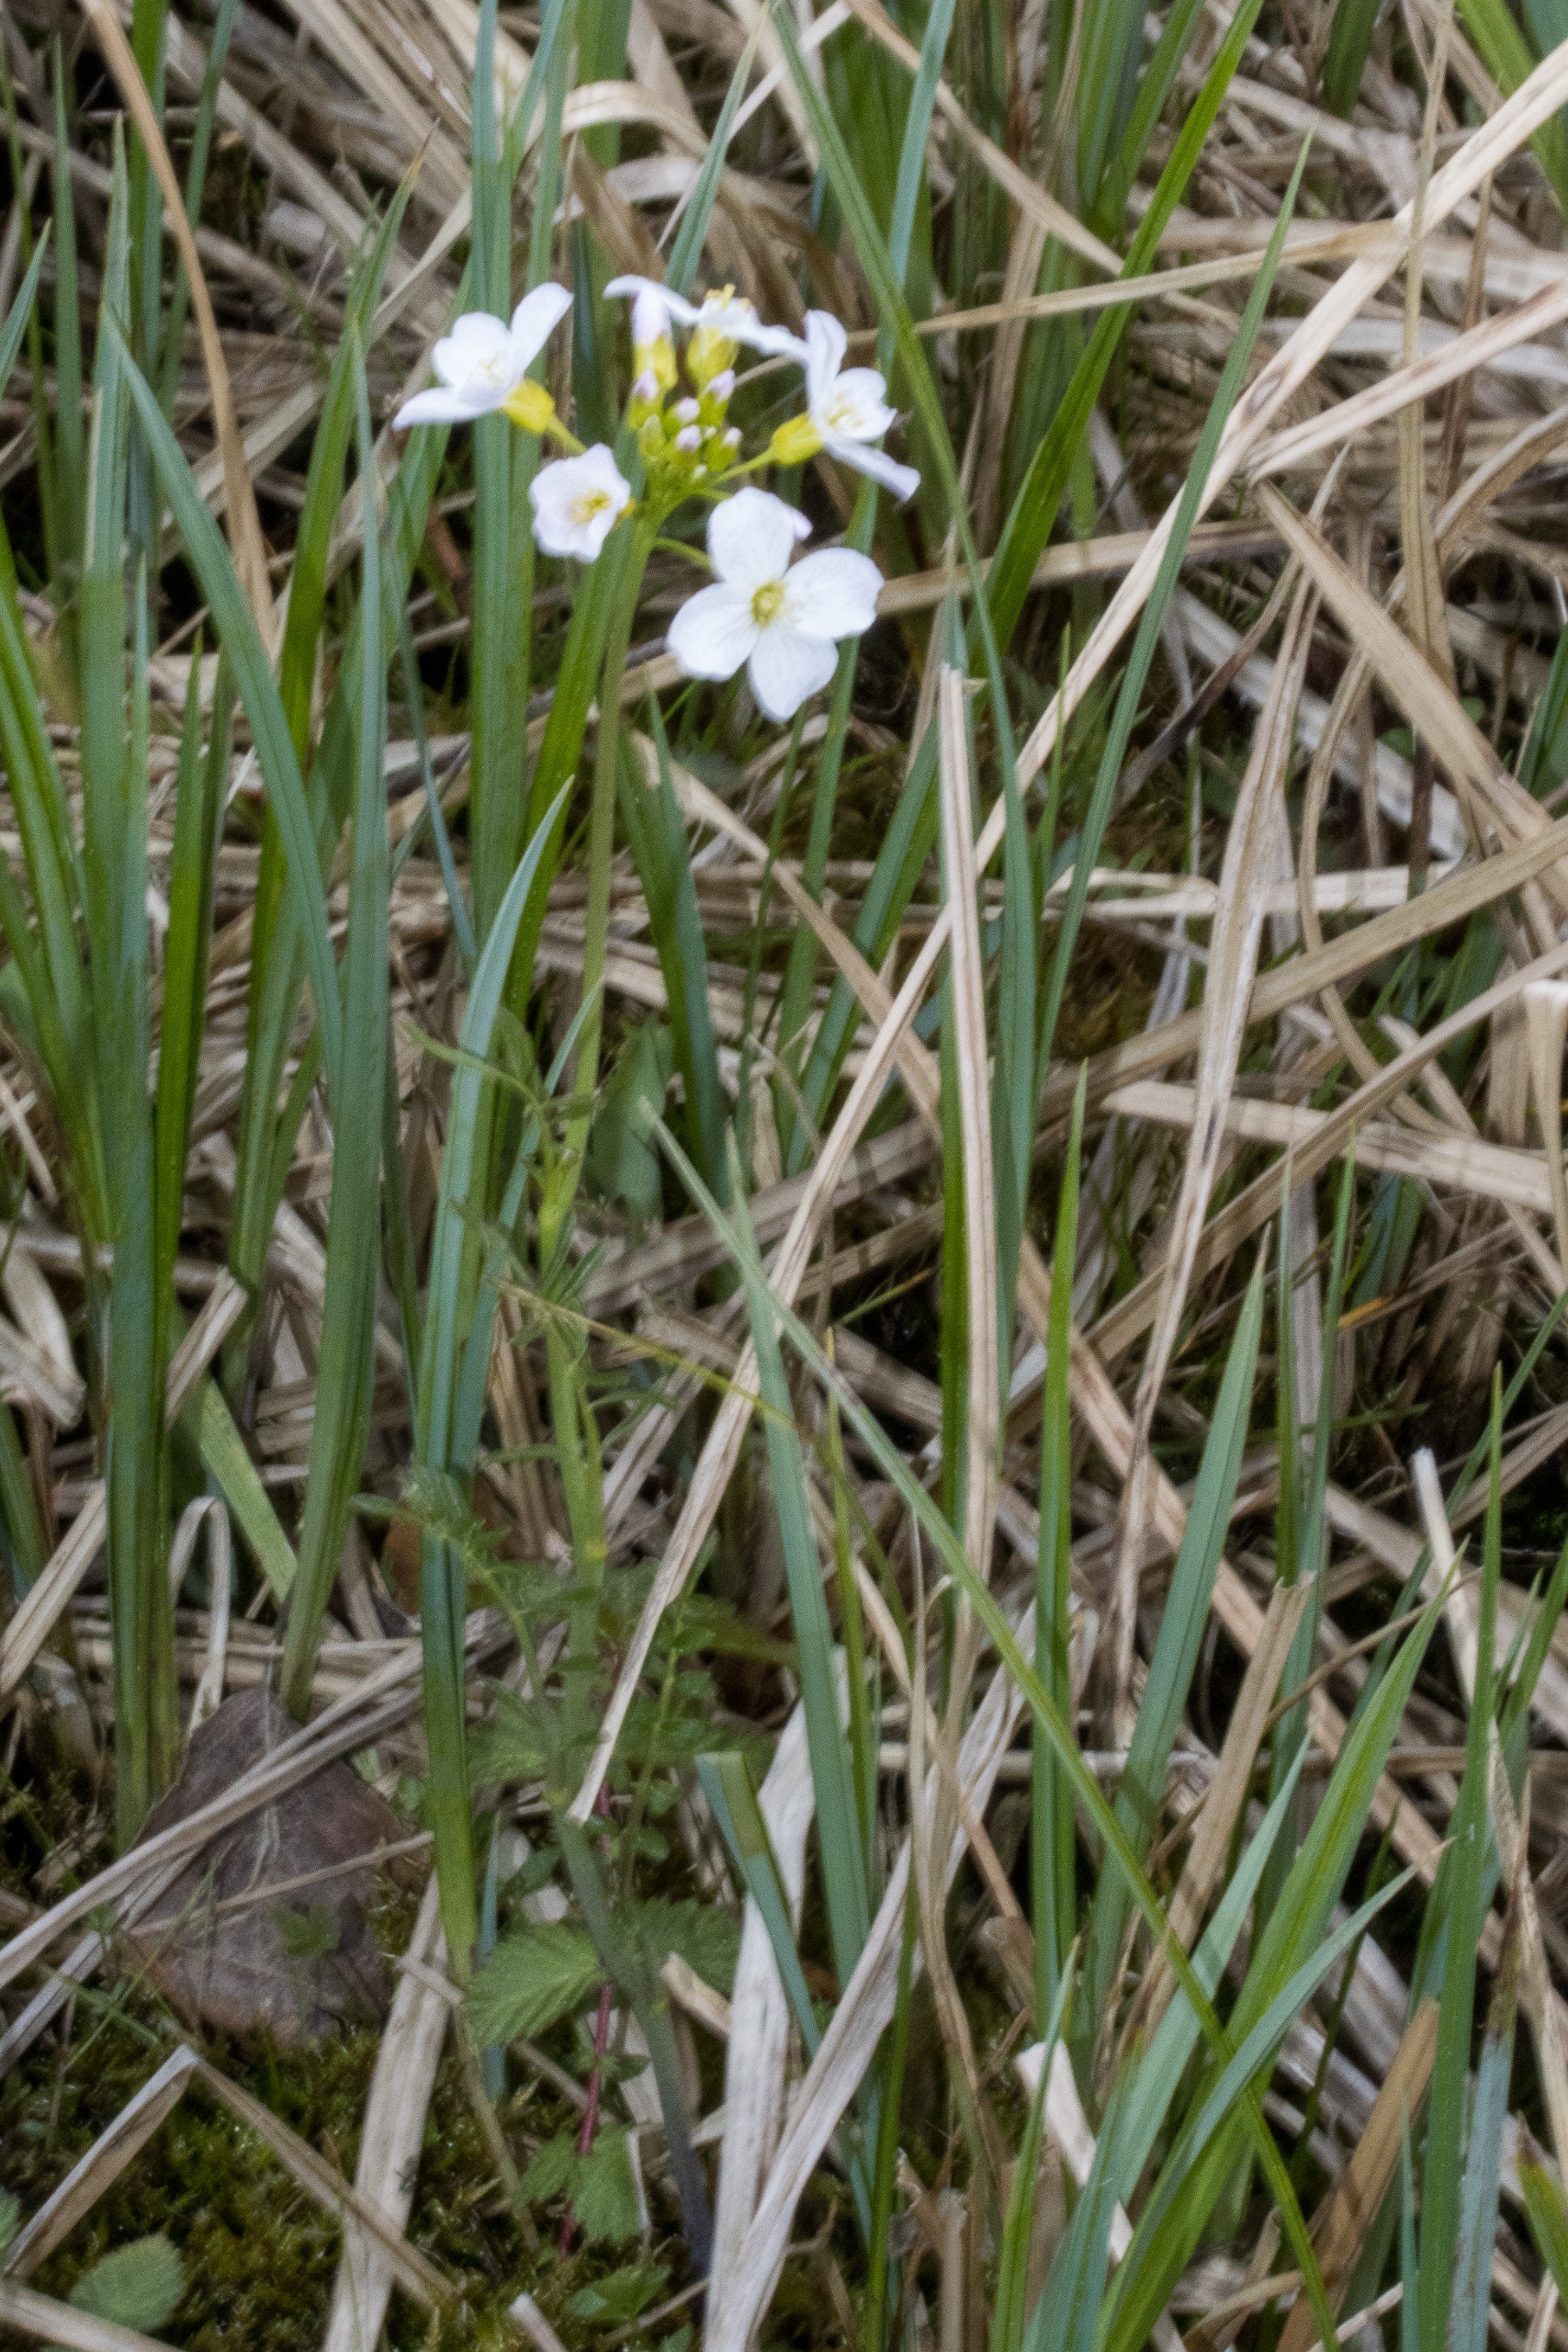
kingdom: Plantae
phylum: Tracheophyta
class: Magnoliopsida
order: Brassicales
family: Brassicaceae
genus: Cardamine
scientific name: Cardamine pratensis
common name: Engkarse
